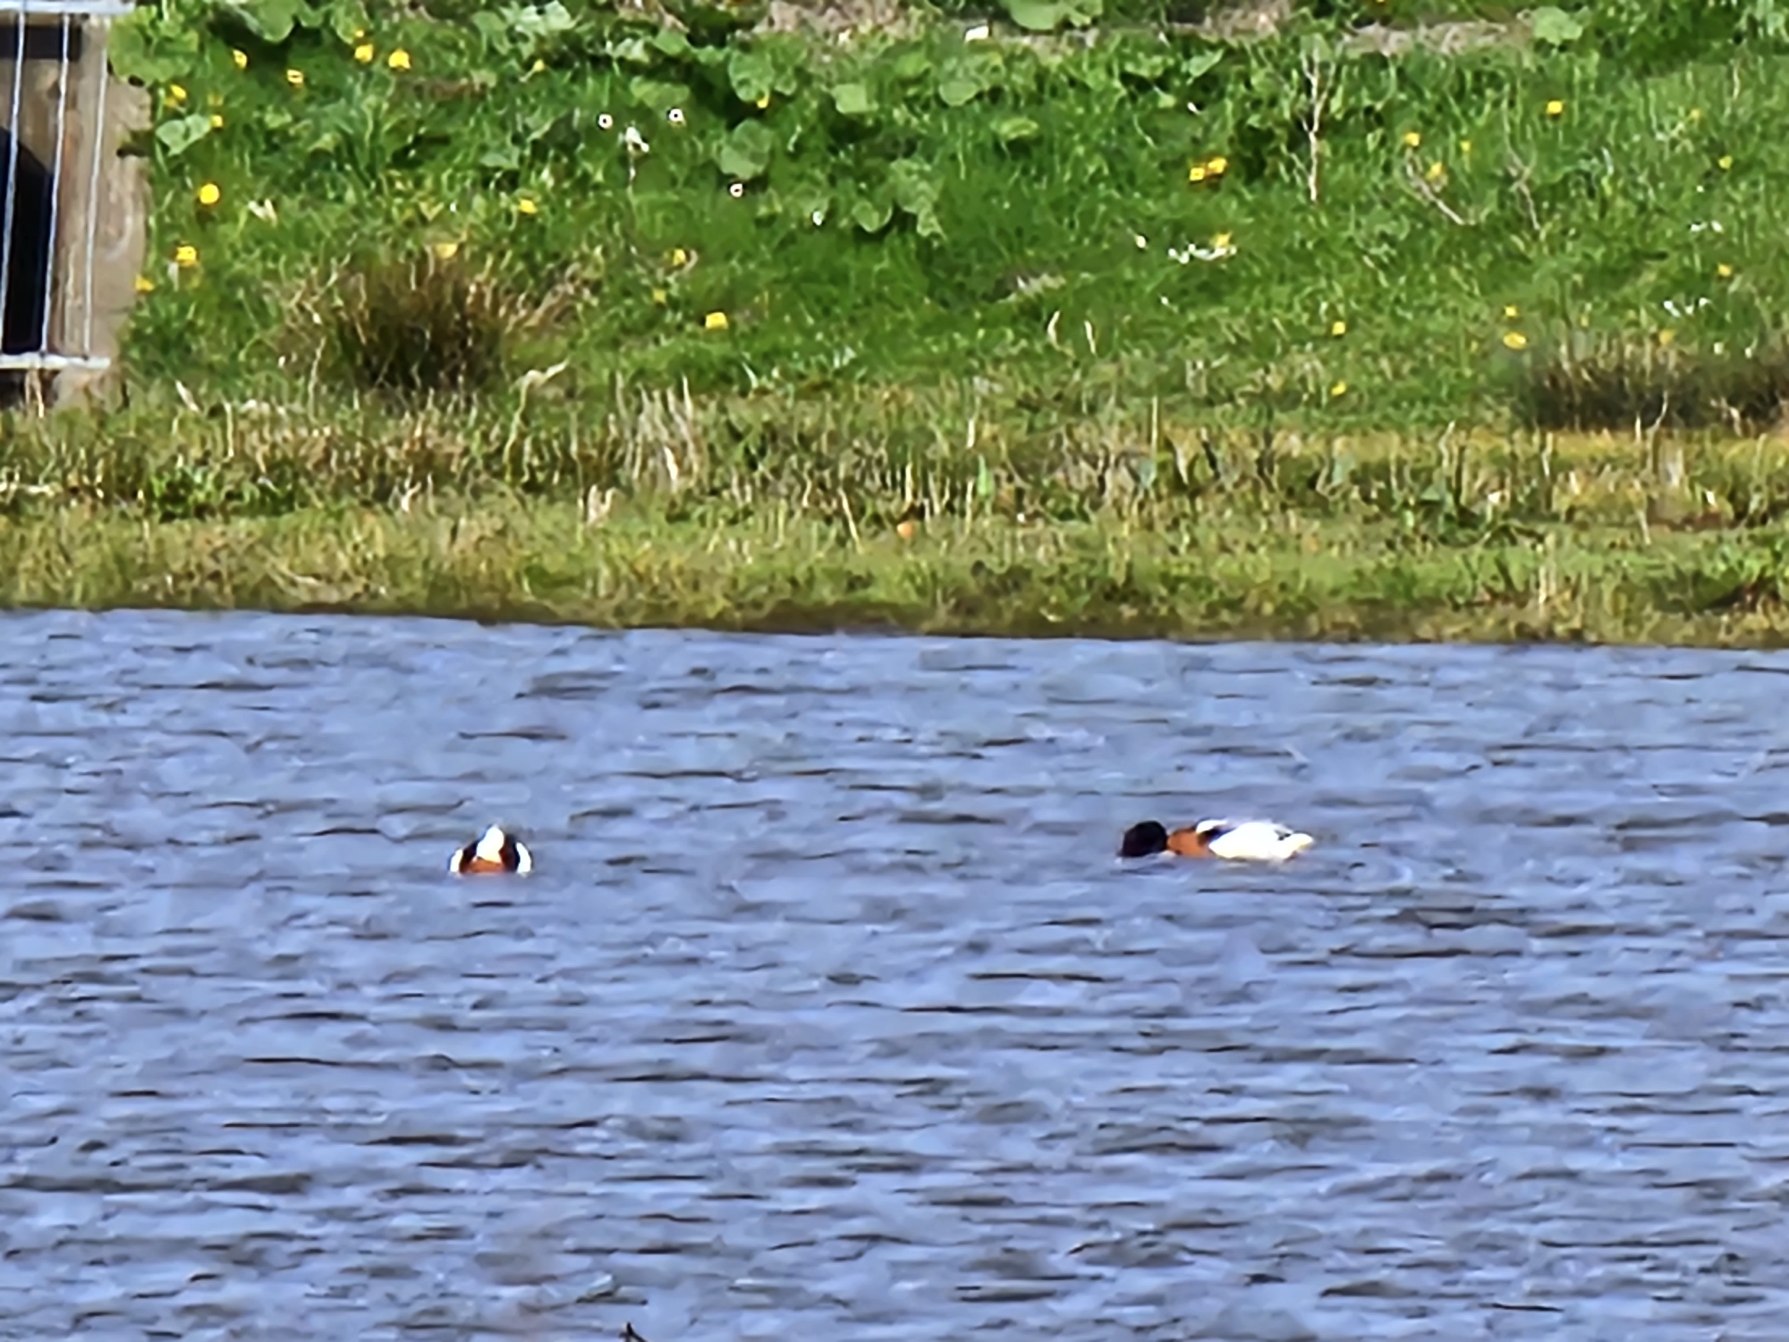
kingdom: Animalia
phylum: Chordata
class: Aves
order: Anseriformes
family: Anatidae
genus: Tadorna
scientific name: Tadorna tadorna
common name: Gravand
